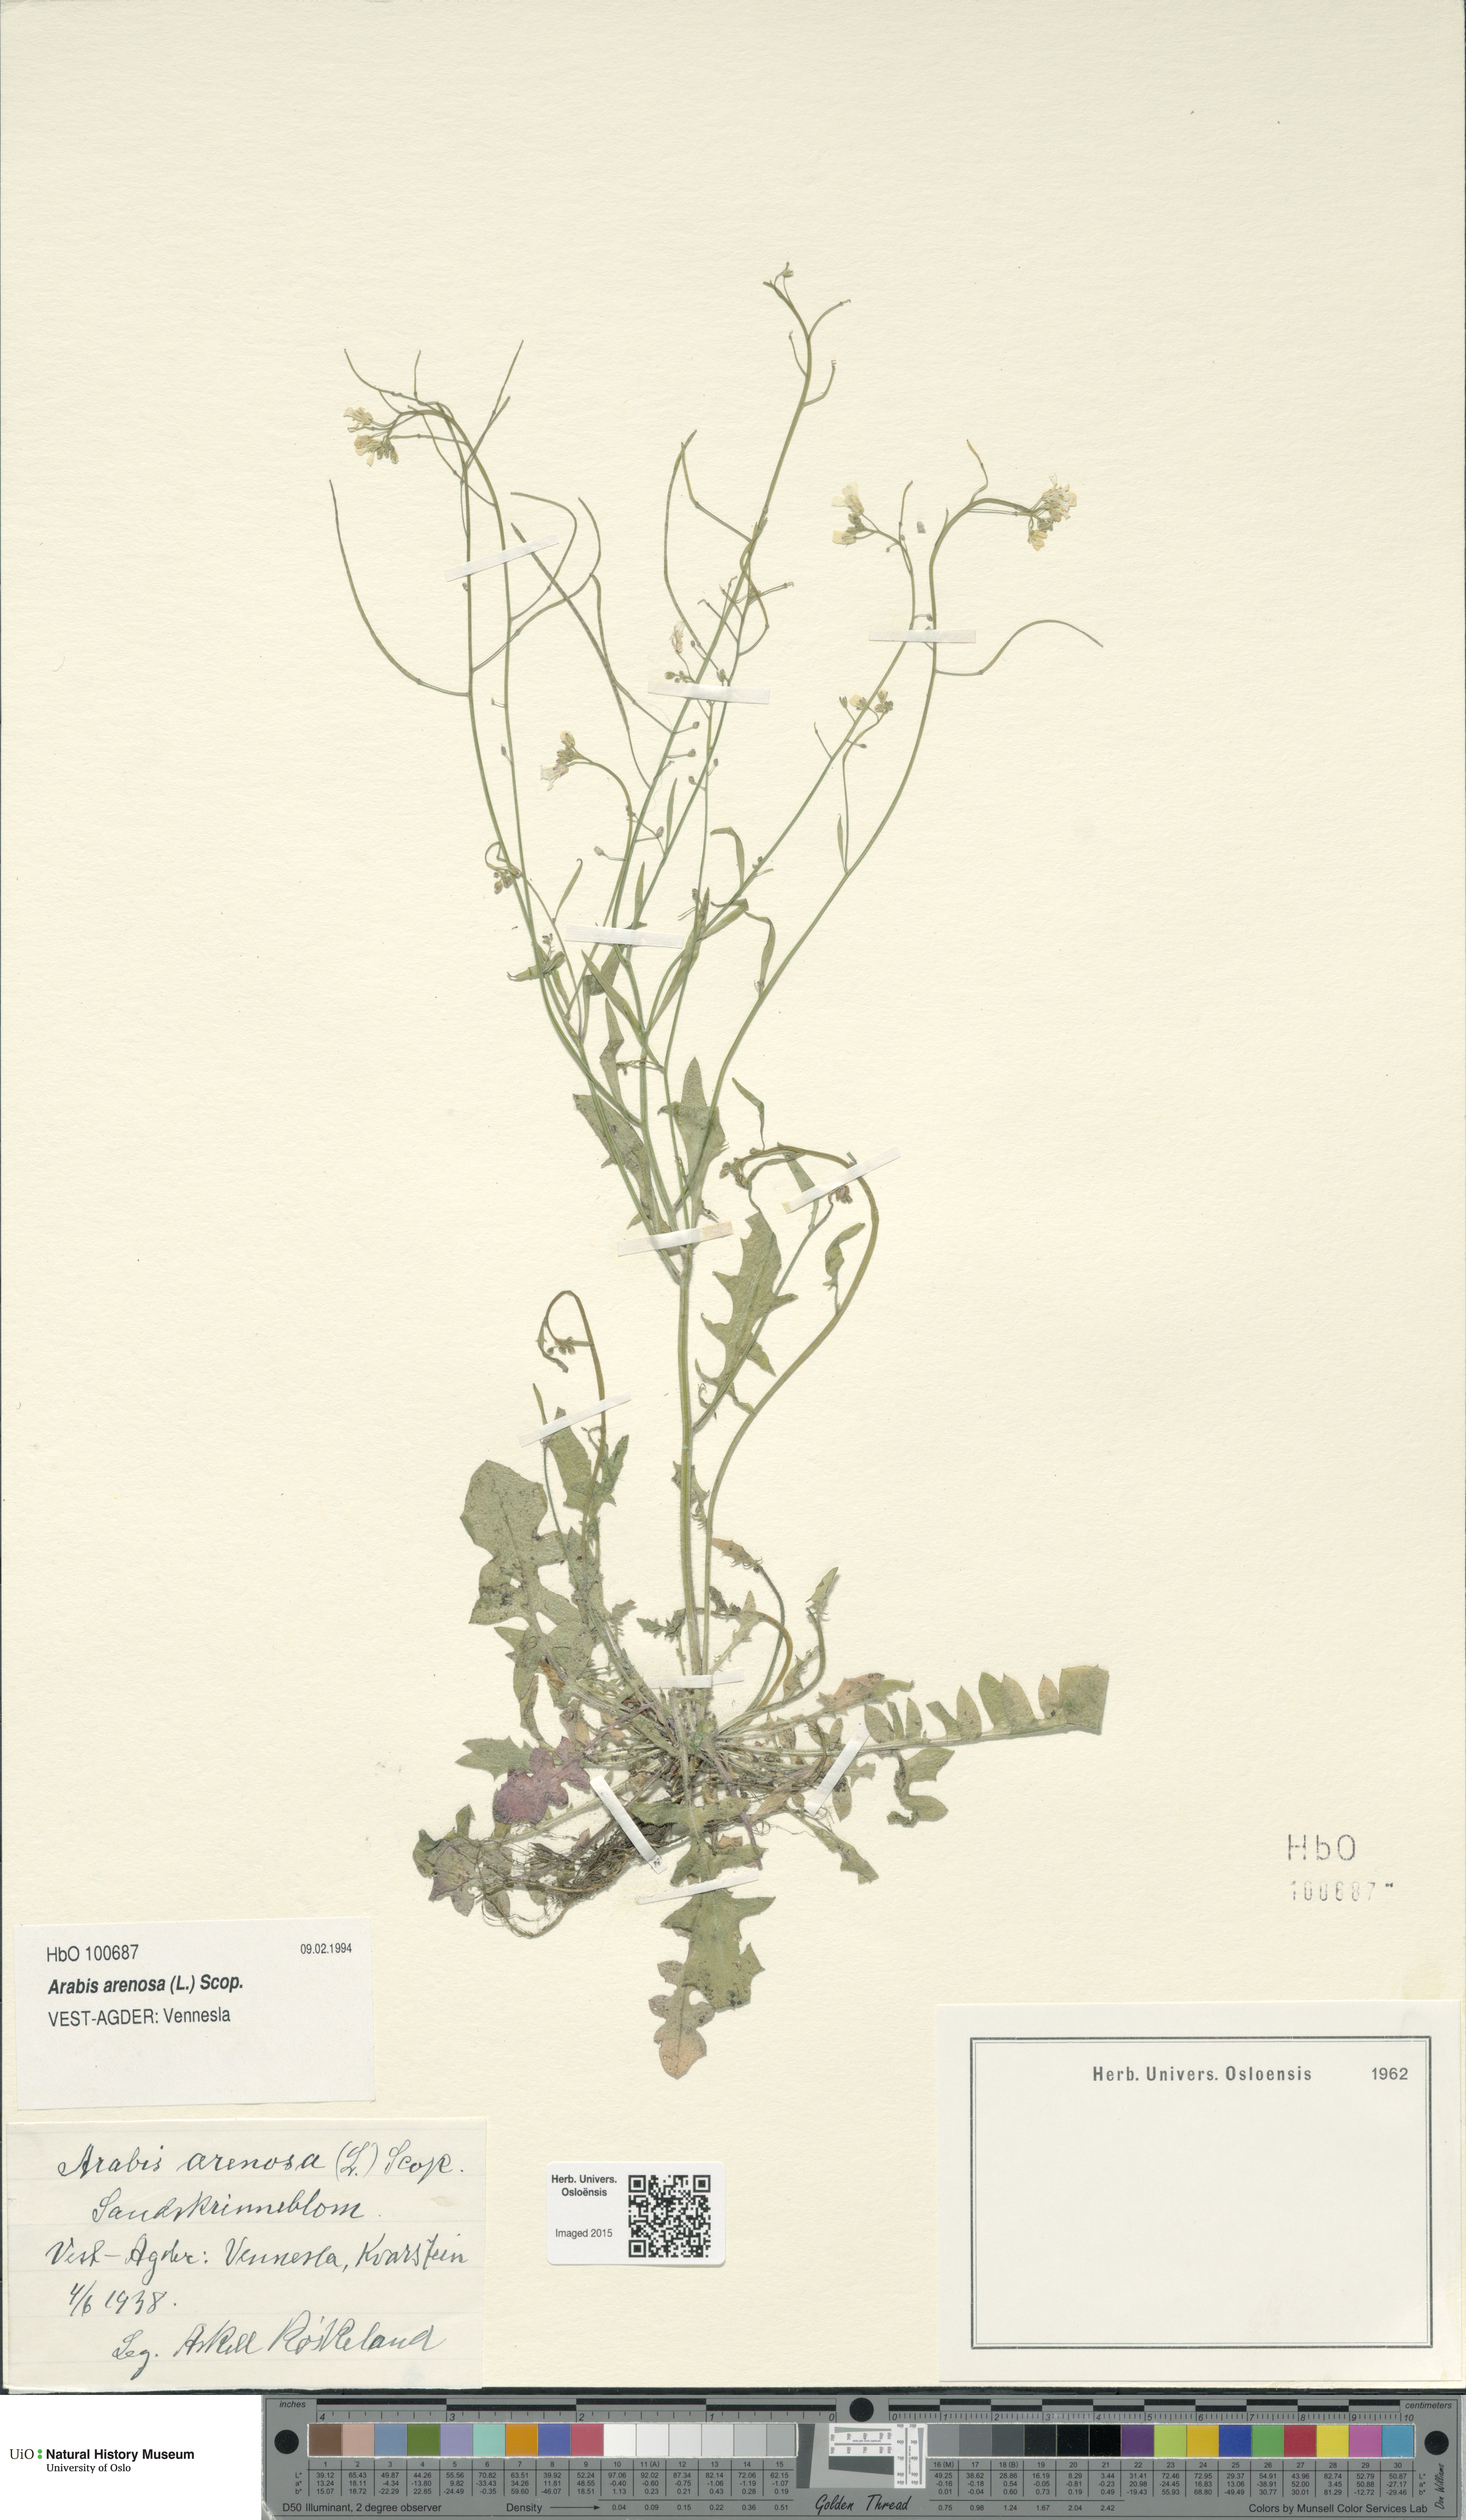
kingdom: Plantae
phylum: Tracheophyta
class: Magnoliopsida
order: Brassicales
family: Brassicaceae
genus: Arabidopsis
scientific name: Arabidopsis arenosa
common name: Sand rock-cress
